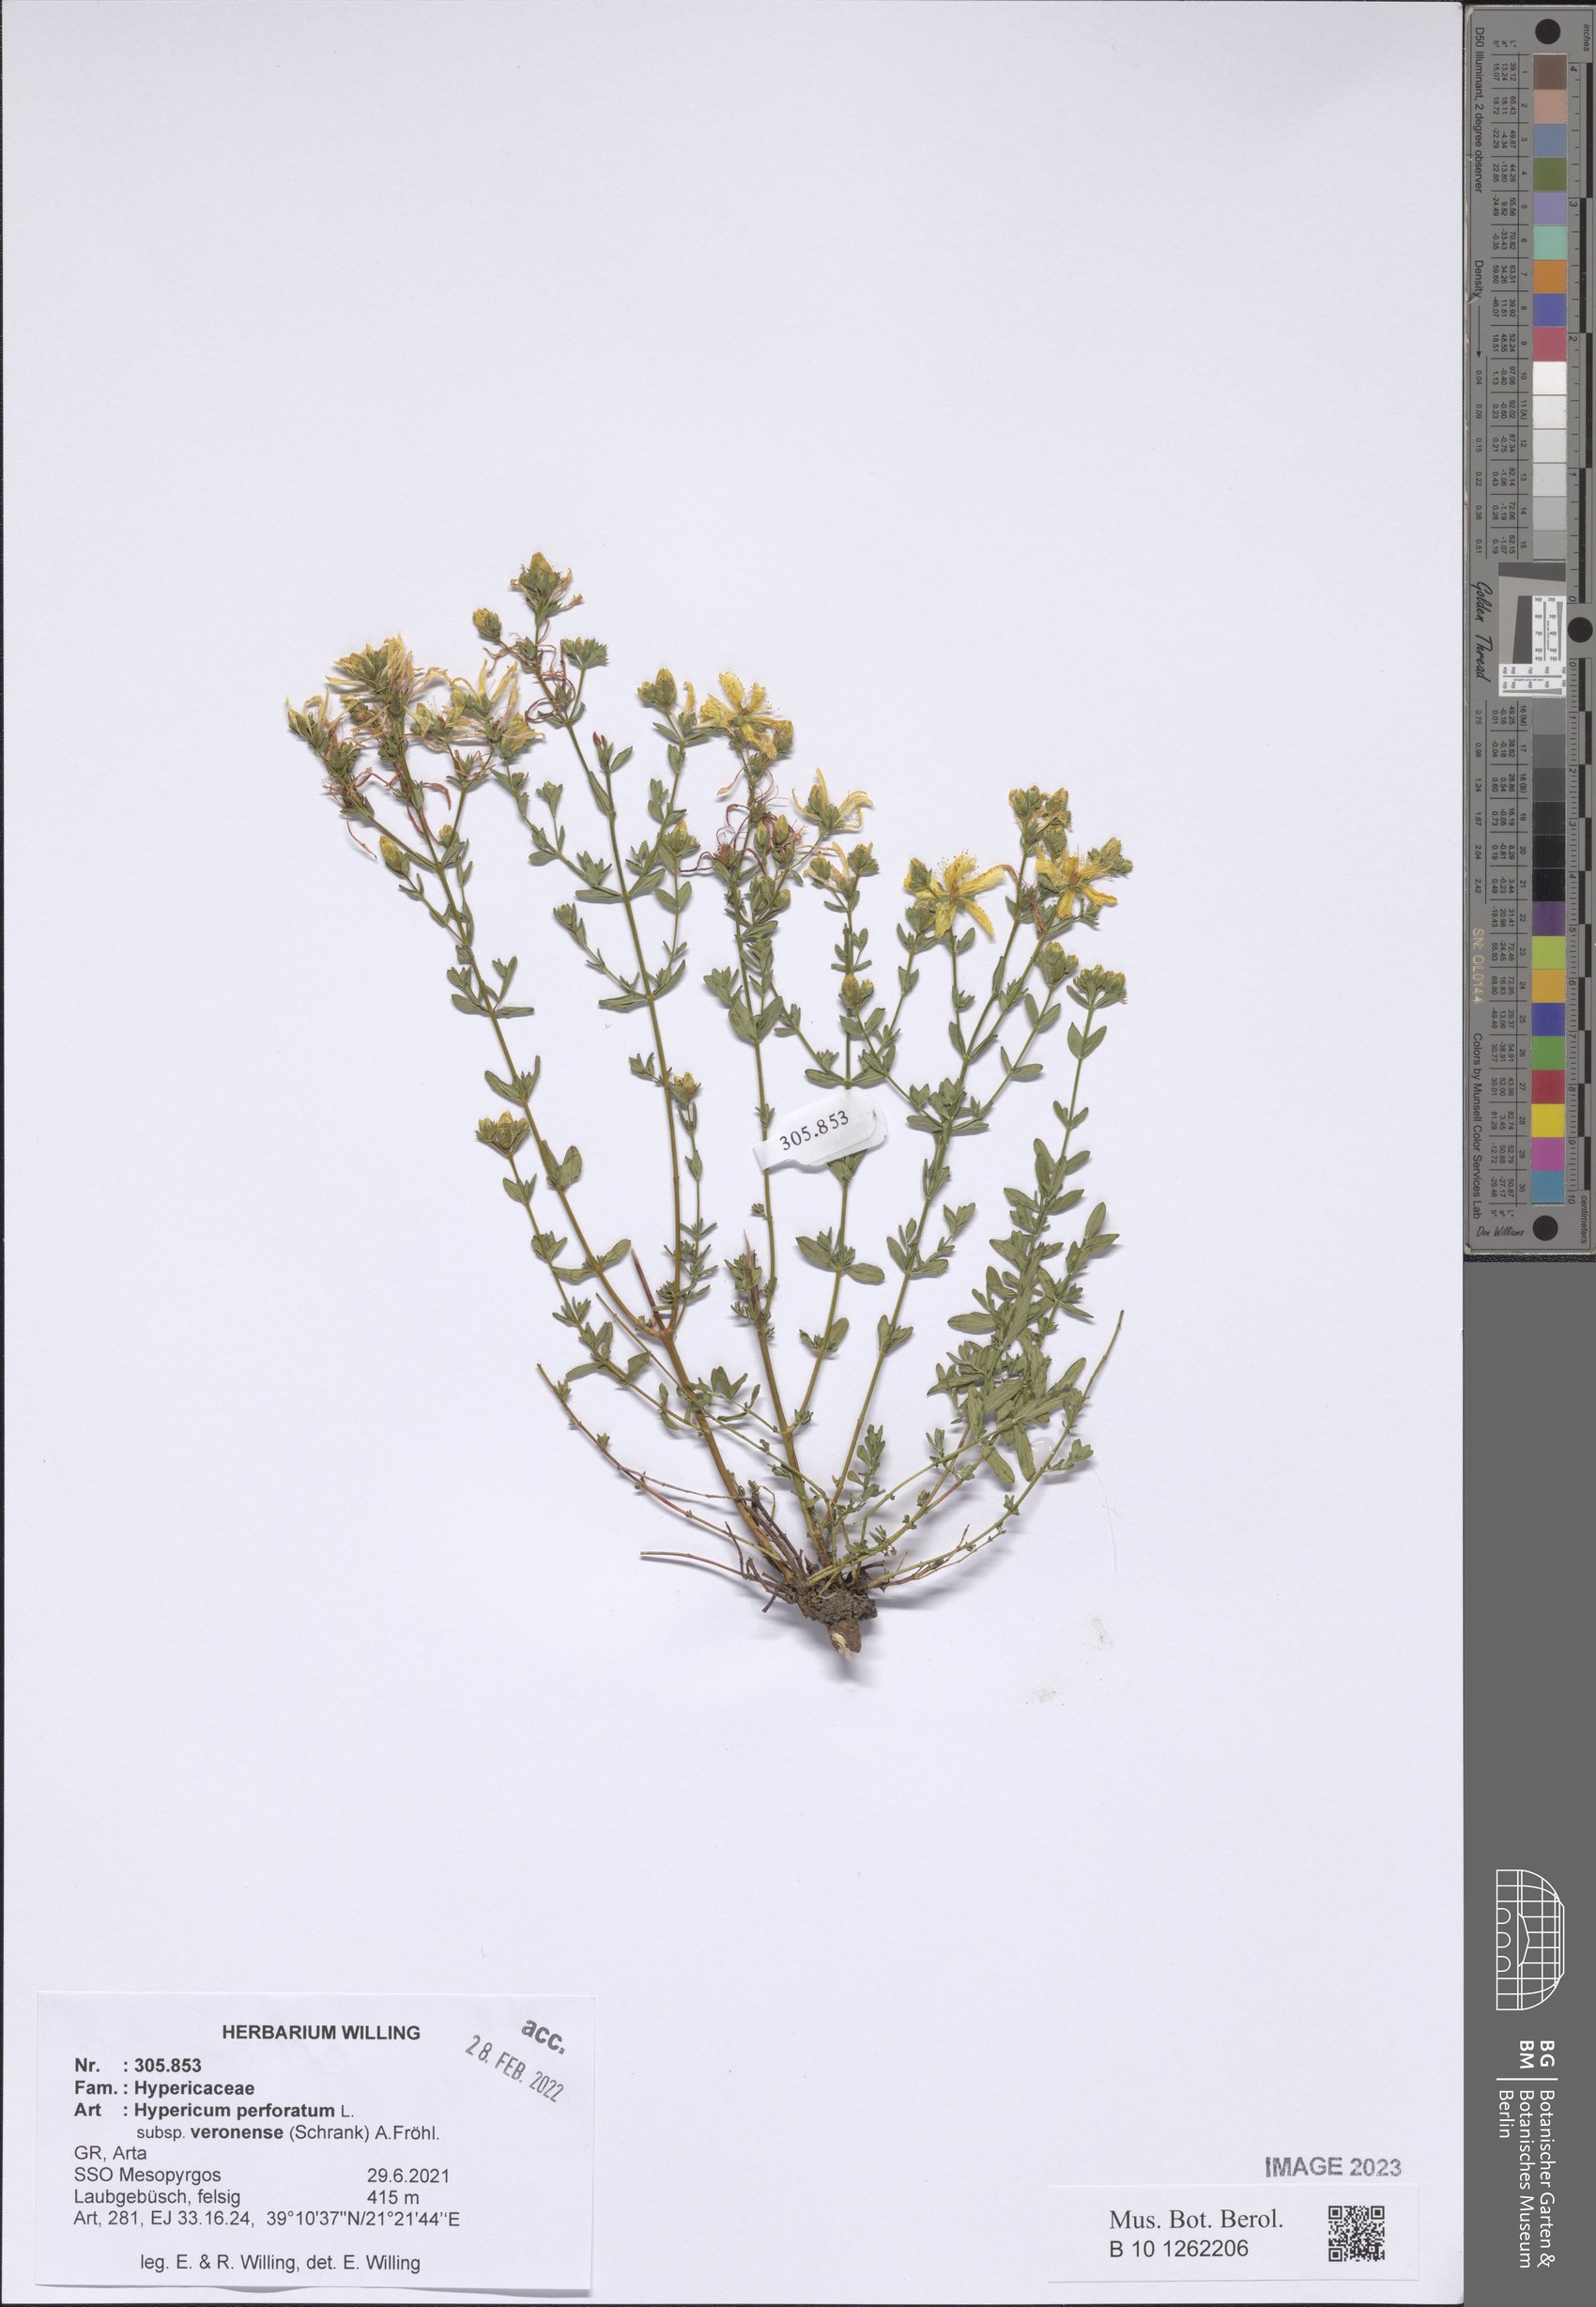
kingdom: Plantae
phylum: Tracheophyta
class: Magnoliopsida
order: Malpighiales
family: Hypericaceae
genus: Hypericum
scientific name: Hypericum veronense
